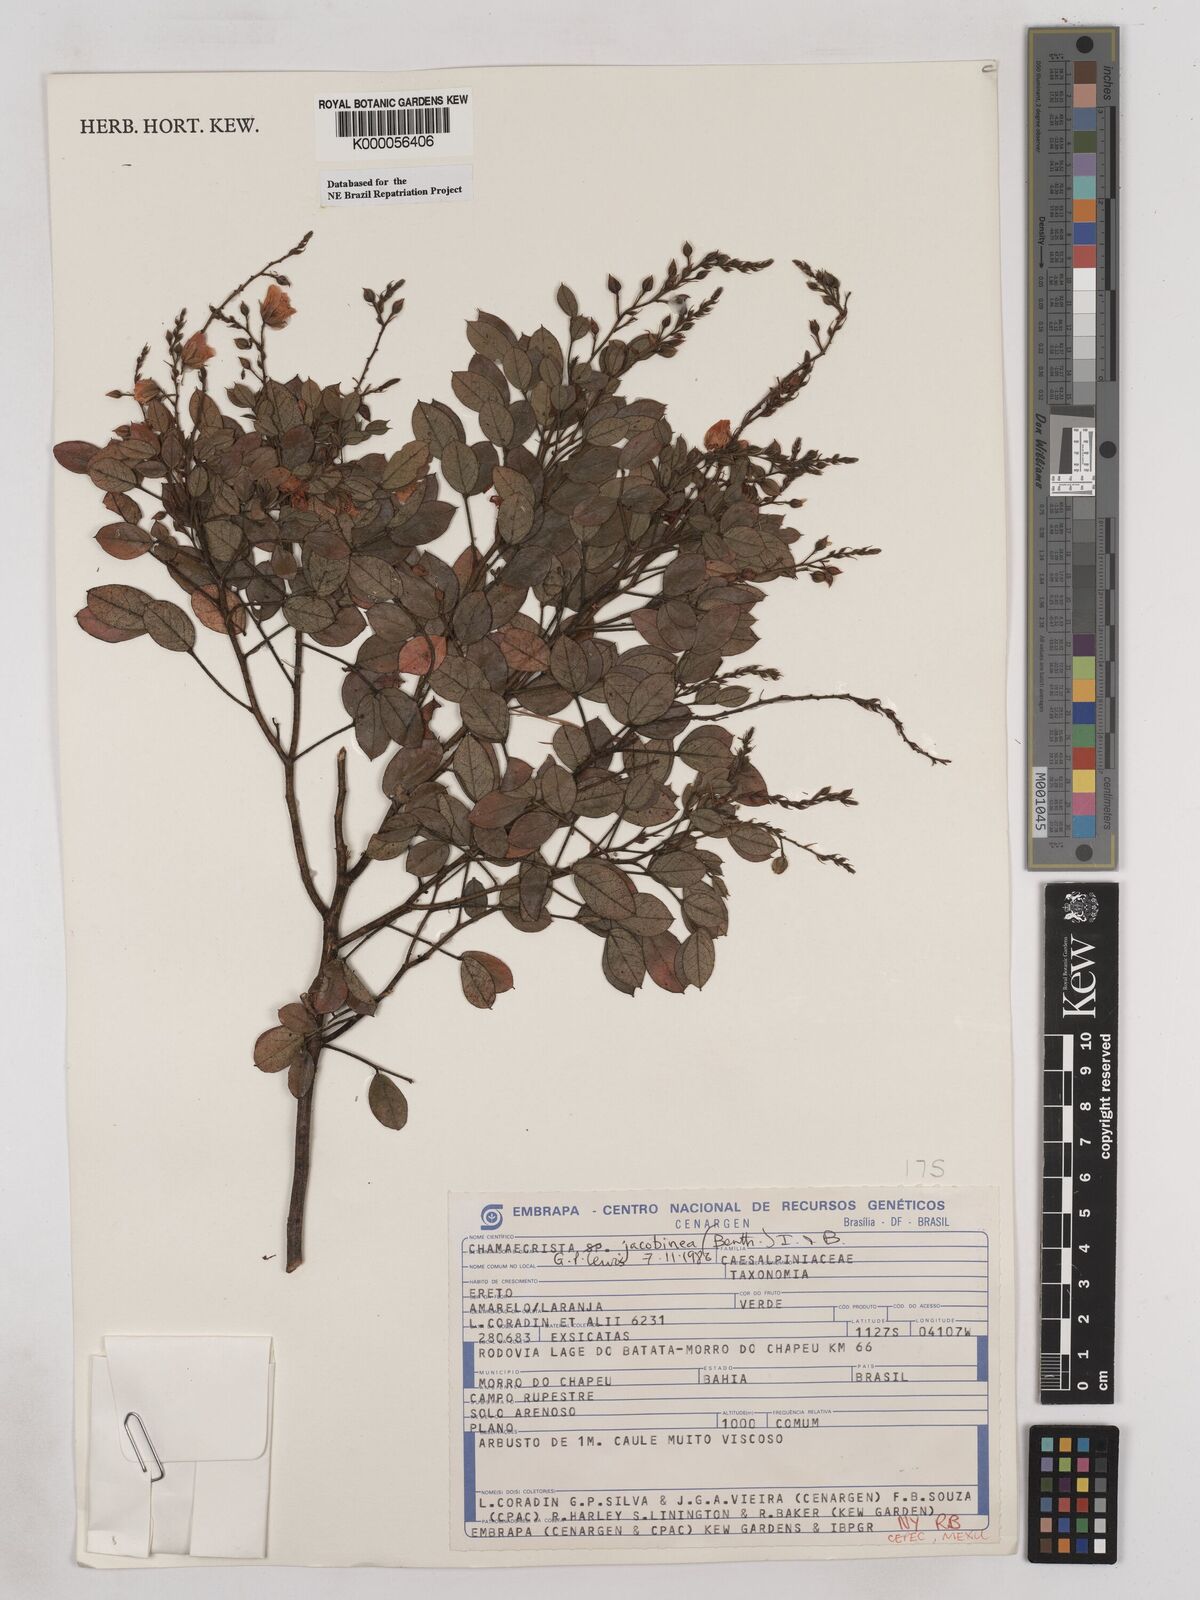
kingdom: Plantae
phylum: Tracheophyta
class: Magnoliopsida
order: Fabales
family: Fabaceae
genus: Chamaecrista
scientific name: Chamaecrista jacobinea
